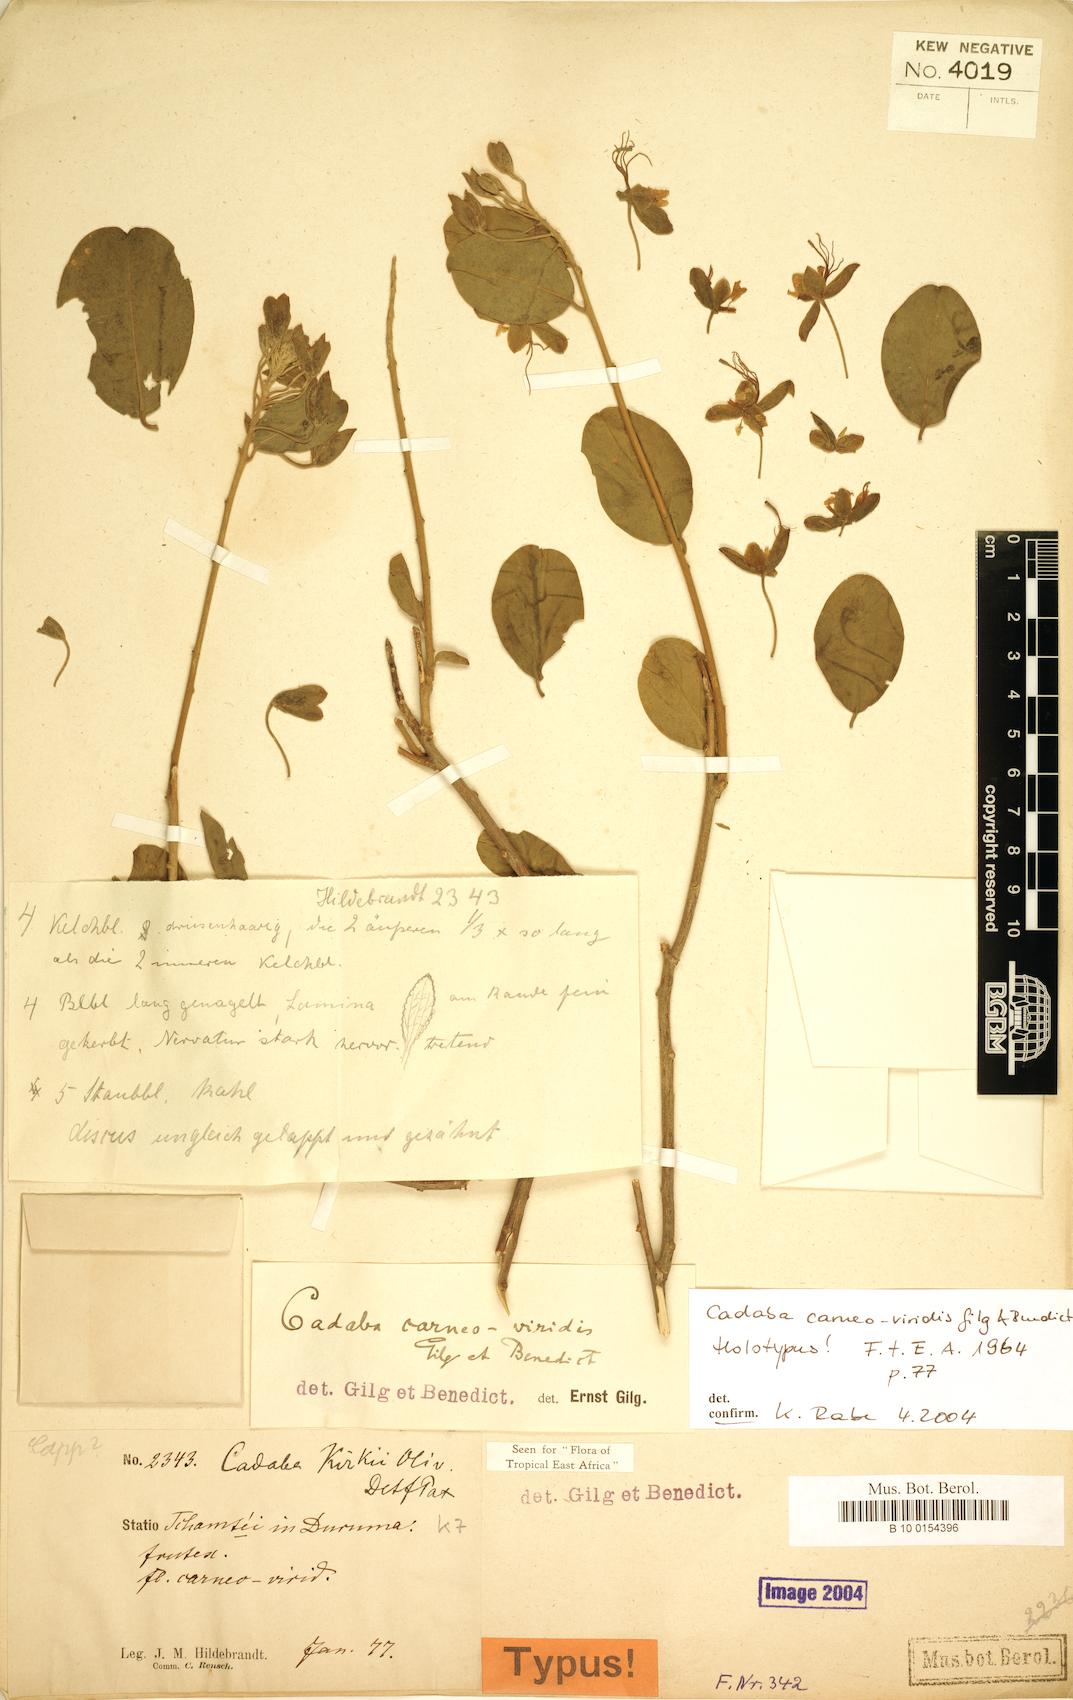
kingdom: Plantae
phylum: Tracheophyta
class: Magnoliopsida
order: Brassicales
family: Capparaceae
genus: Cadaba
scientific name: Cadaba carneoviridis
